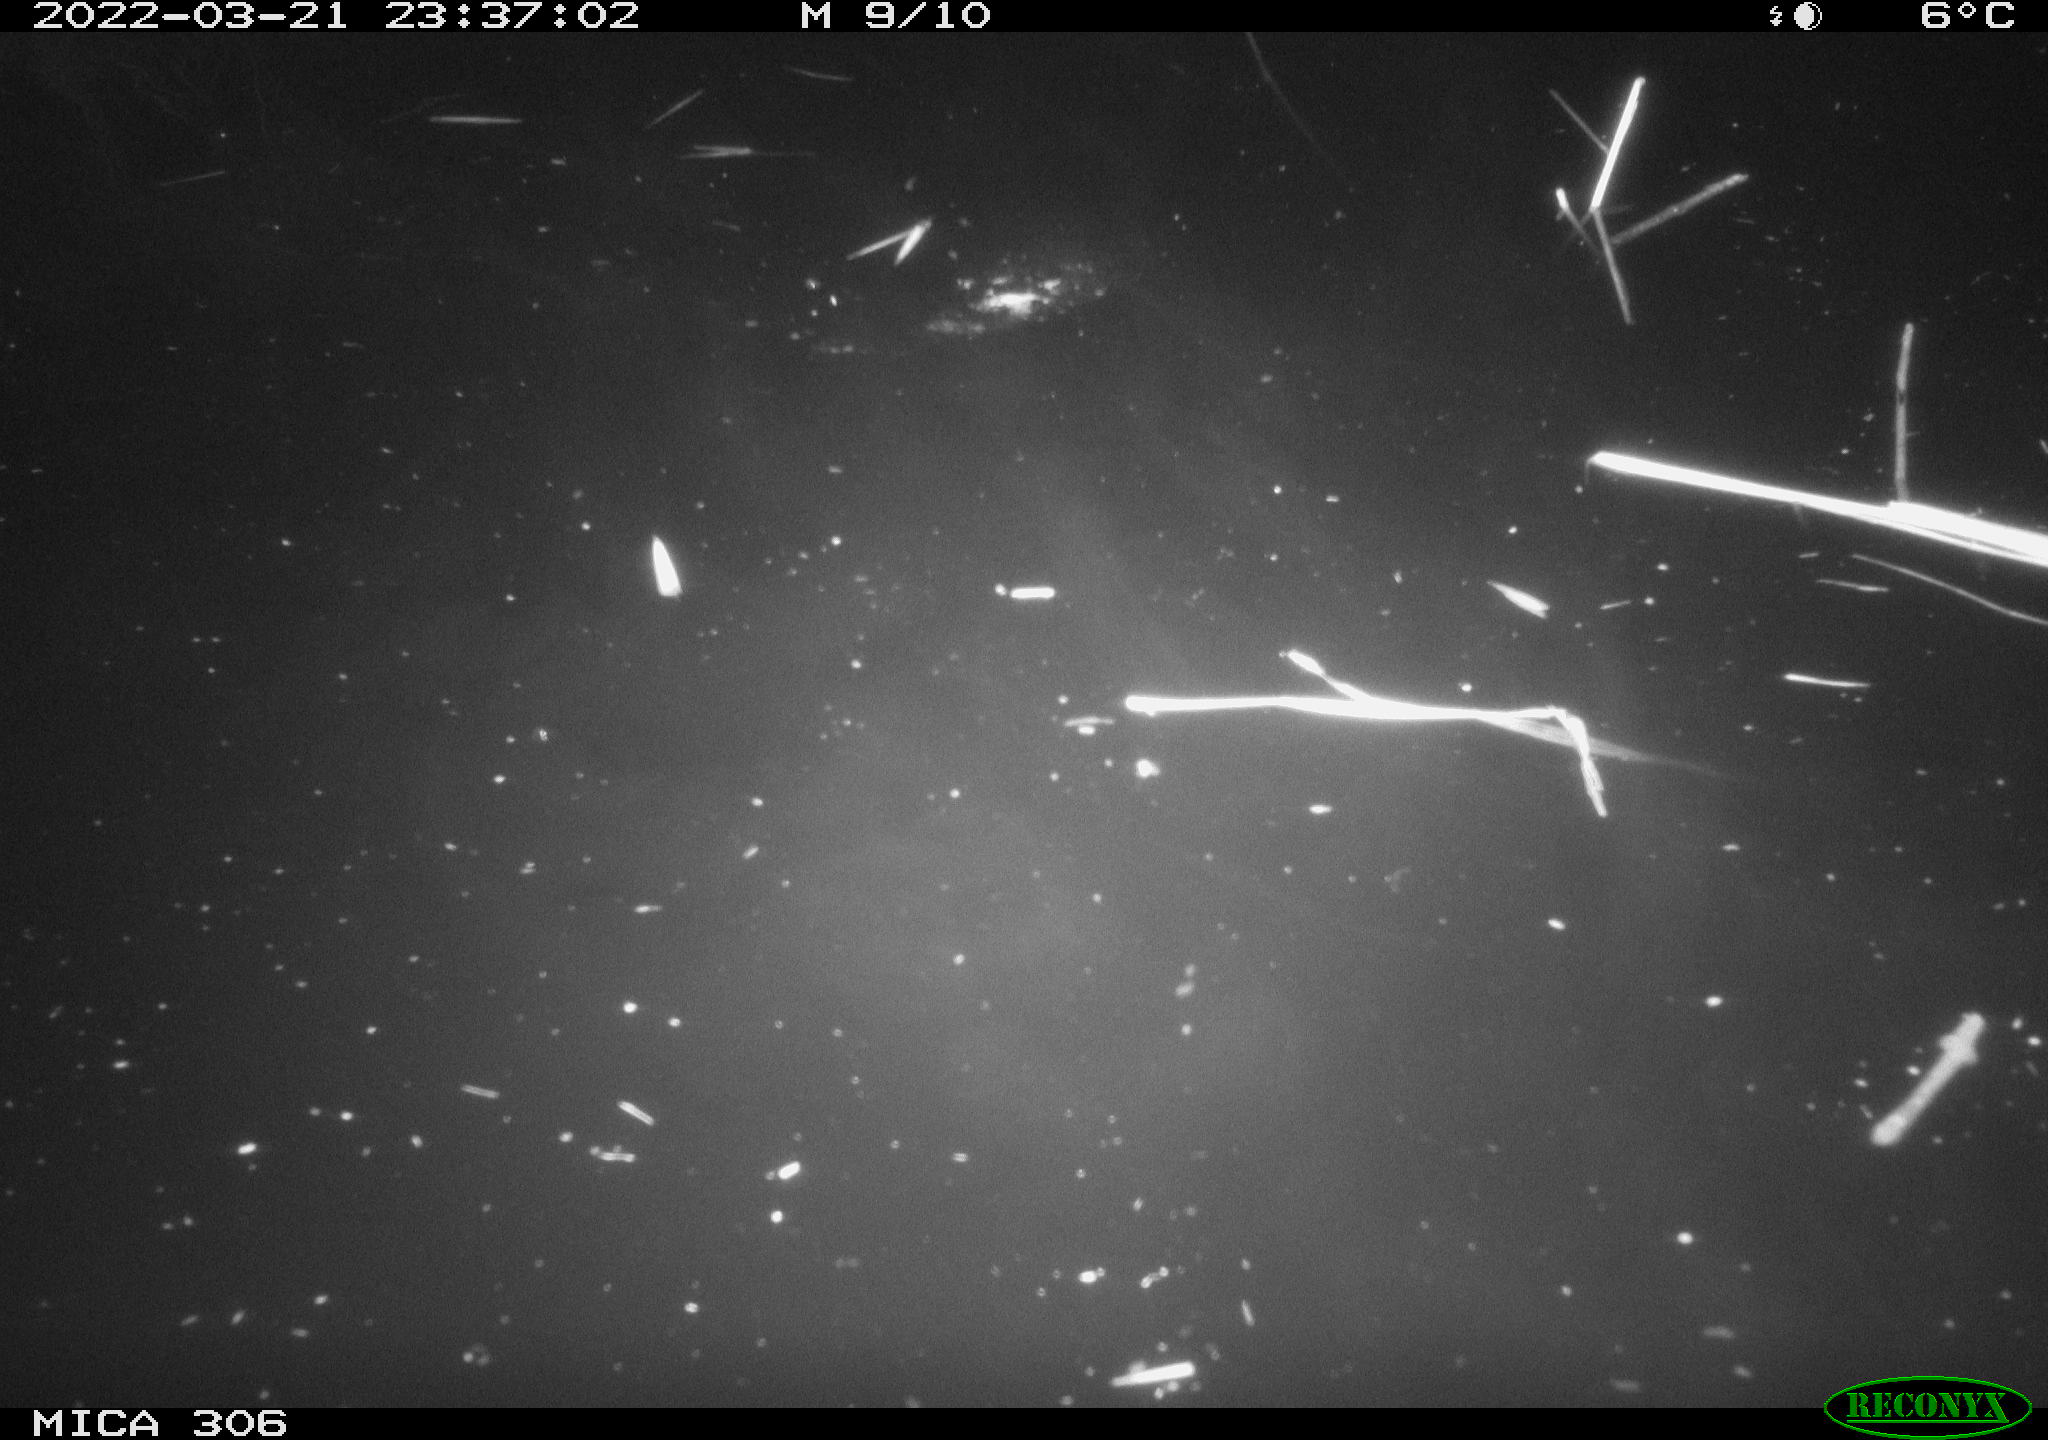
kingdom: Animalia
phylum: Chordata
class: Aves
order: Anseriformes
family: Anatidae
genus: Anas
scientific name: Anas
